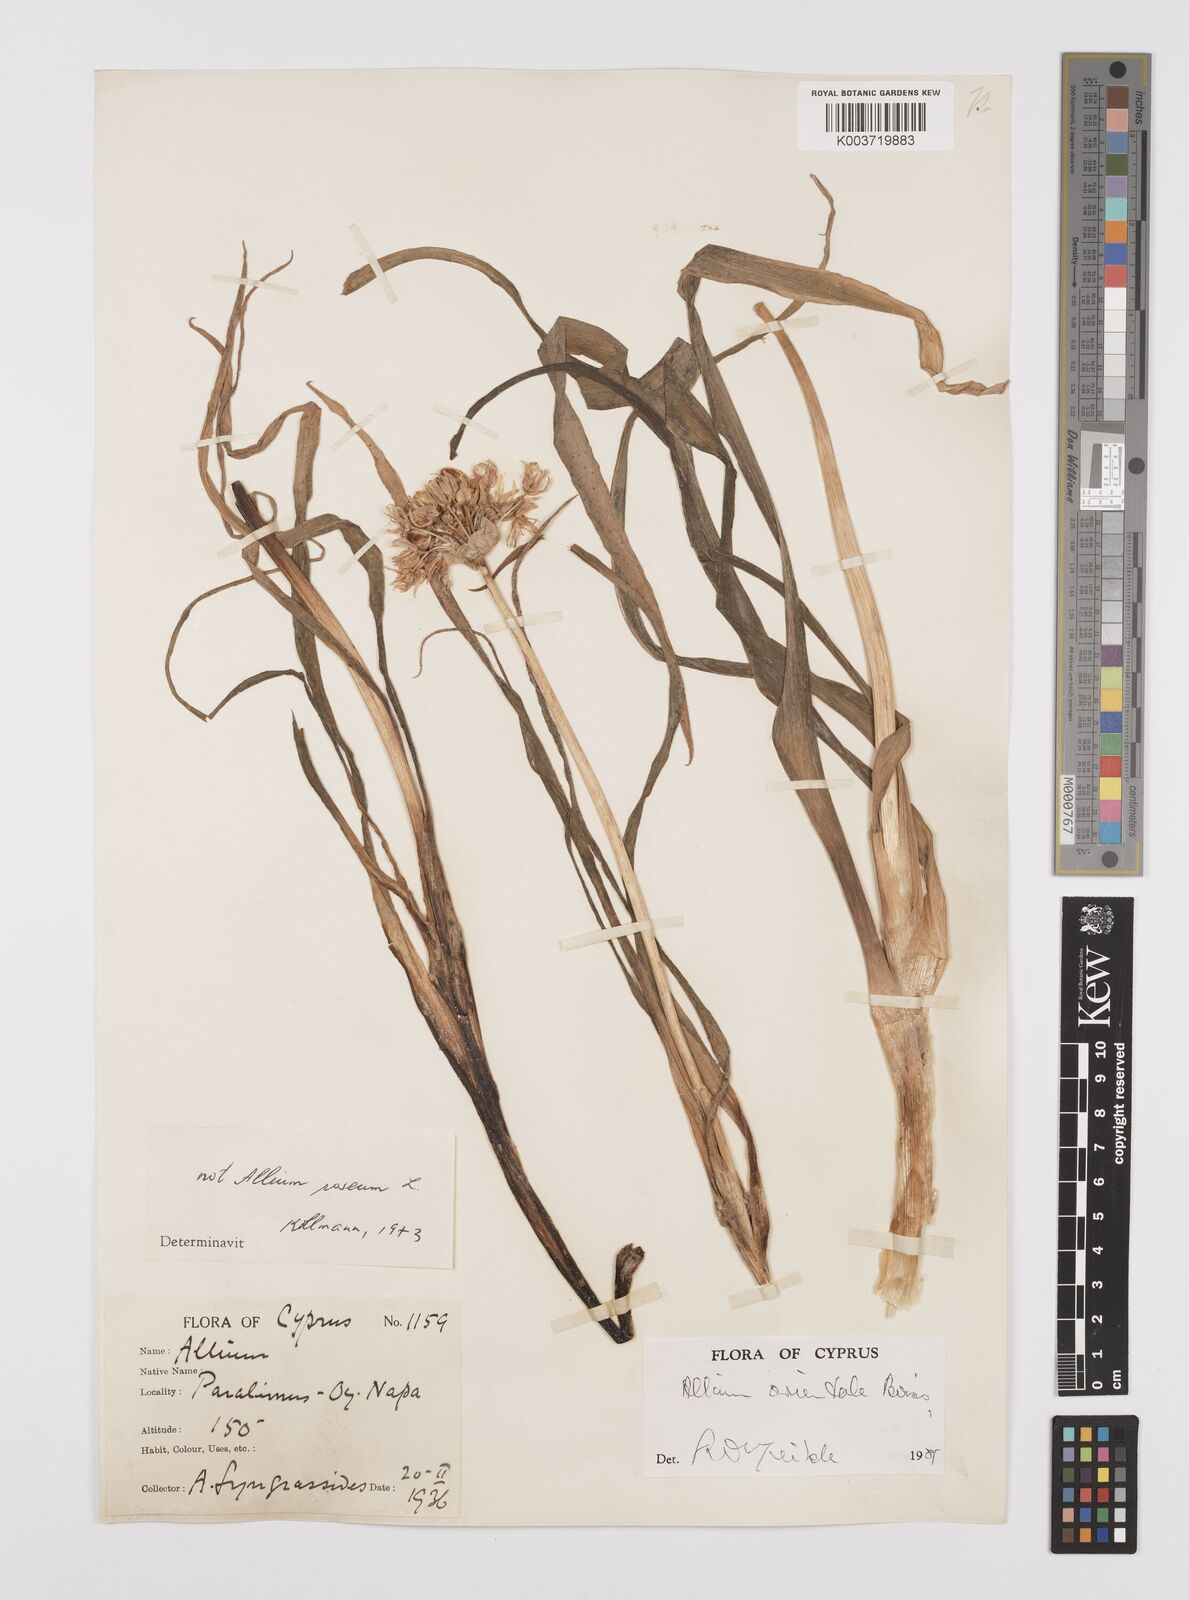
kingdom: Plantae
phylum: Tracheophyta
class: Liliopsida
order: Asparagales
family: Amaryllidaceae
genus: Allium
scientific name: Allium orientale
